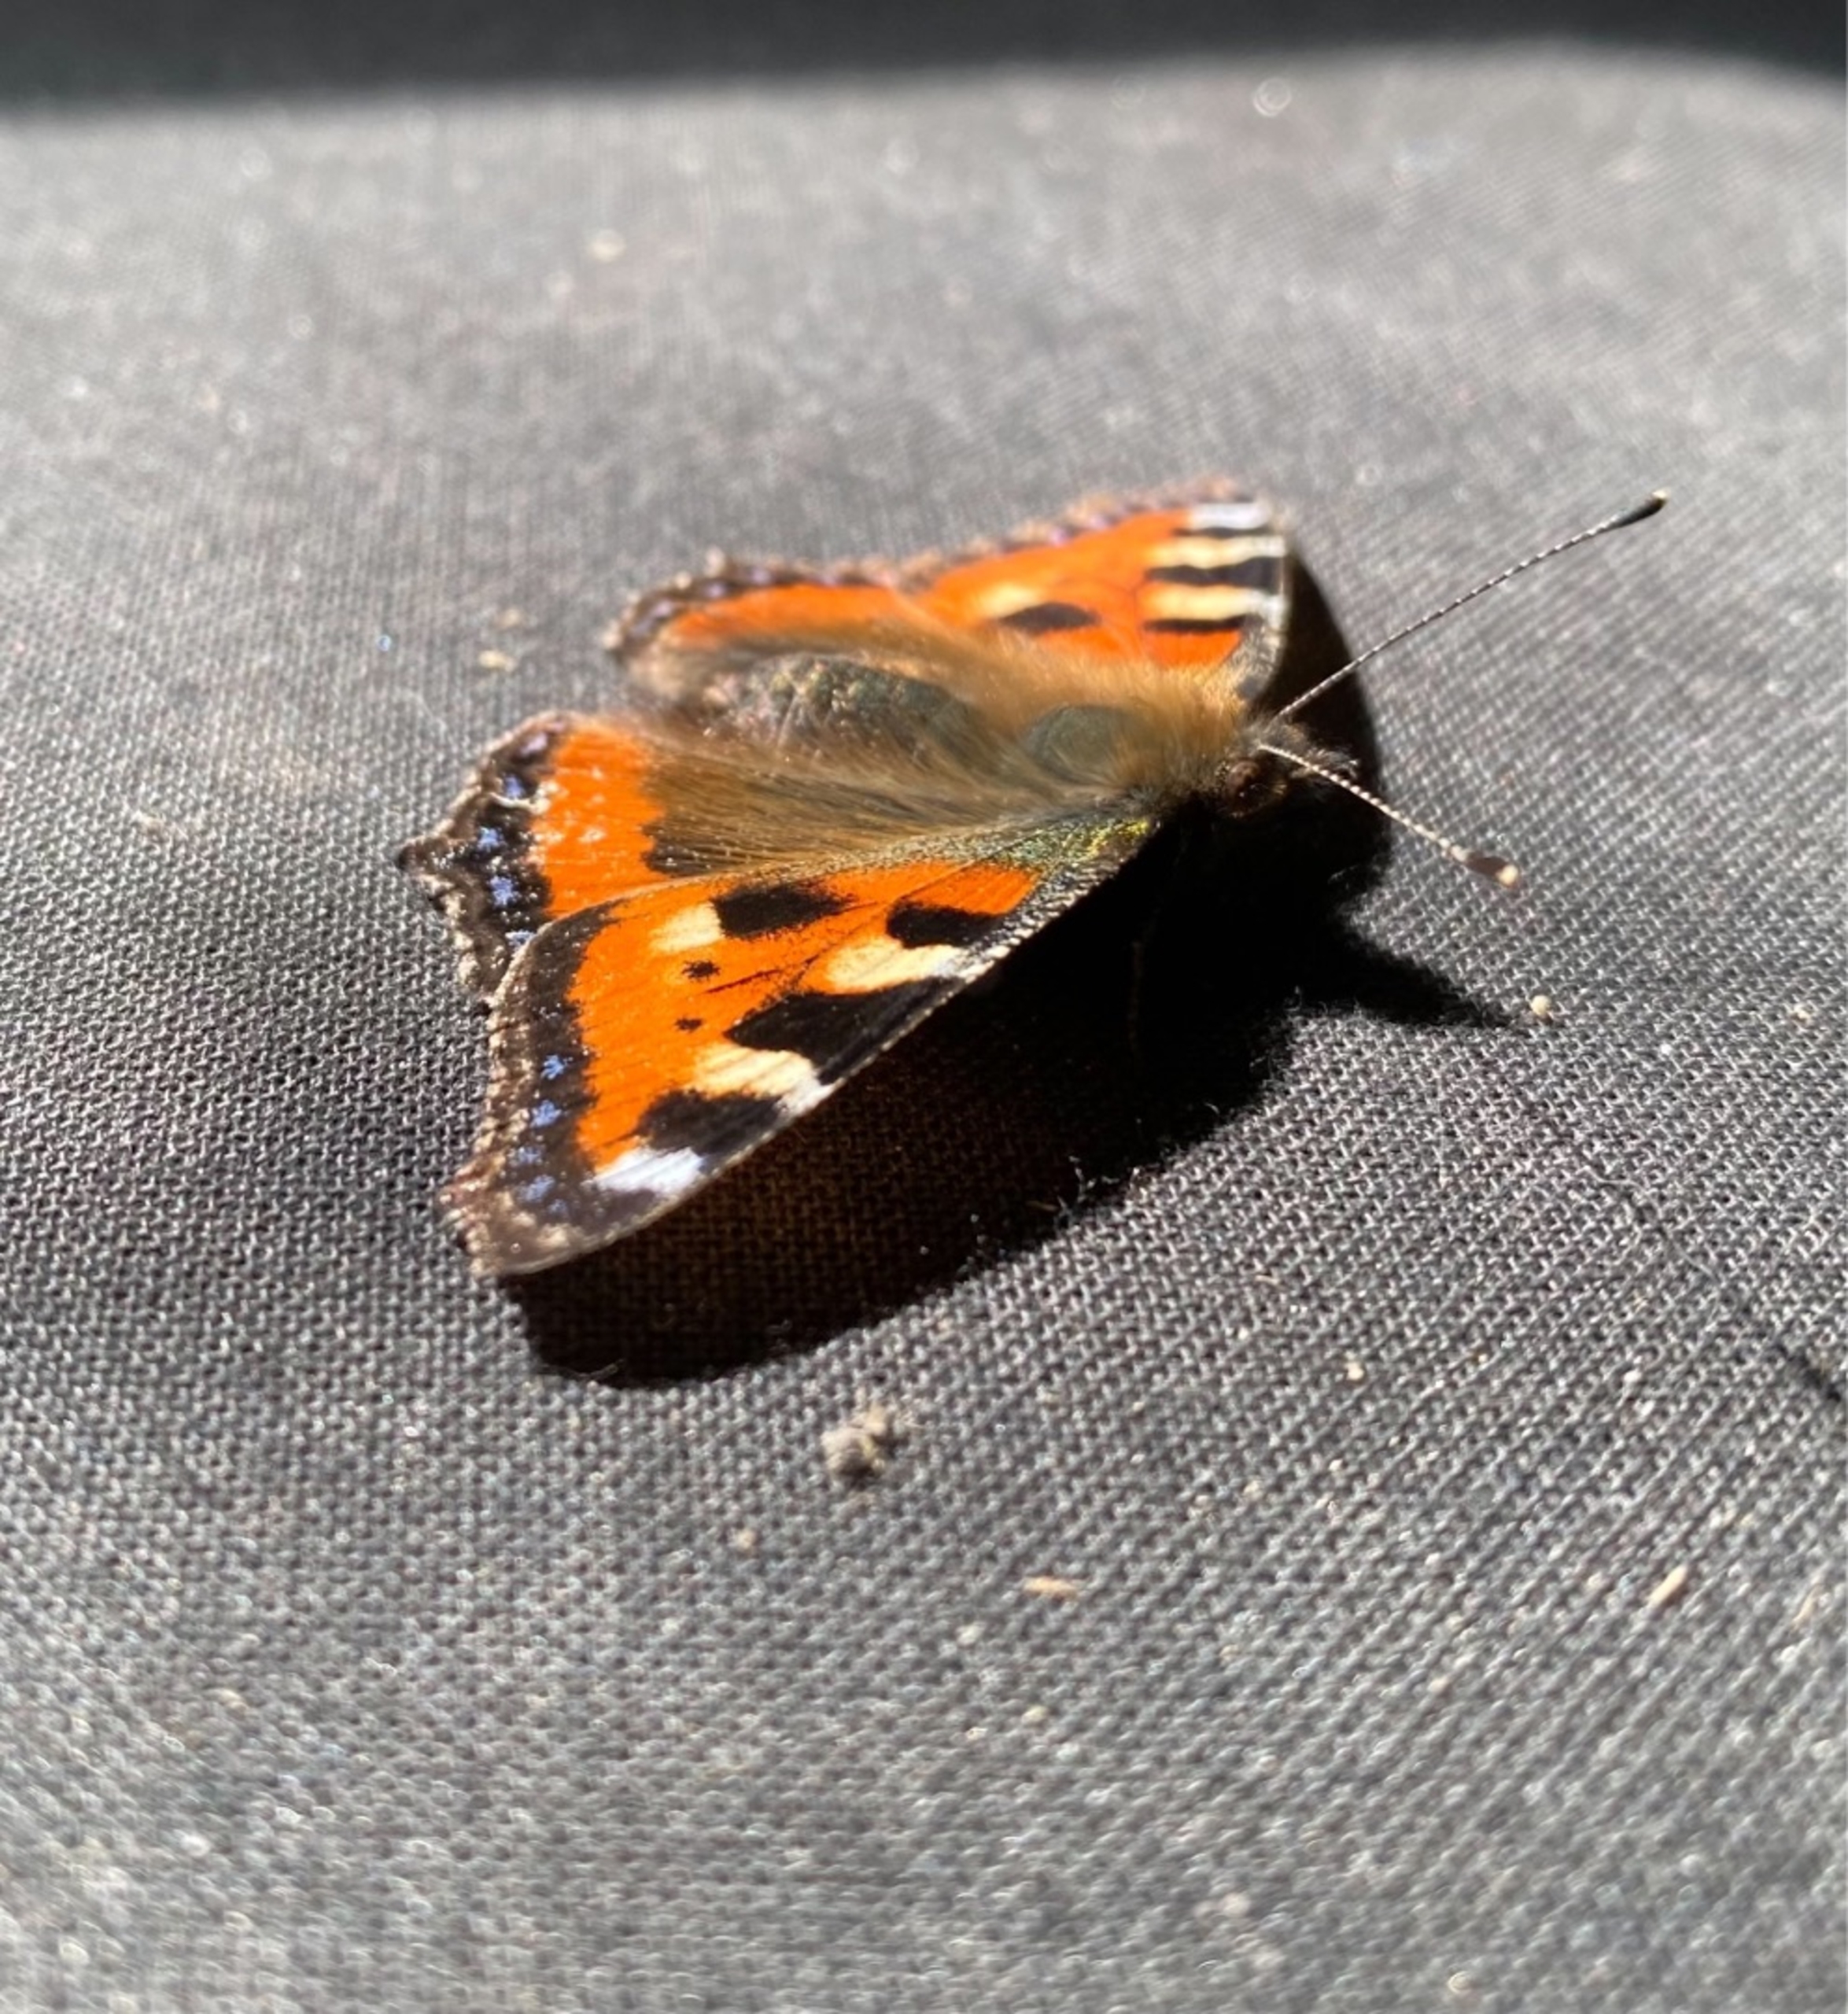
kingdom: Animalia
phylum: Arthropoda
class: Insecta
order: Lepidoptera
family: Nymphalidae
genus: Aglais
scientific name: Aglais urticae
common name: Nældens takvinge
